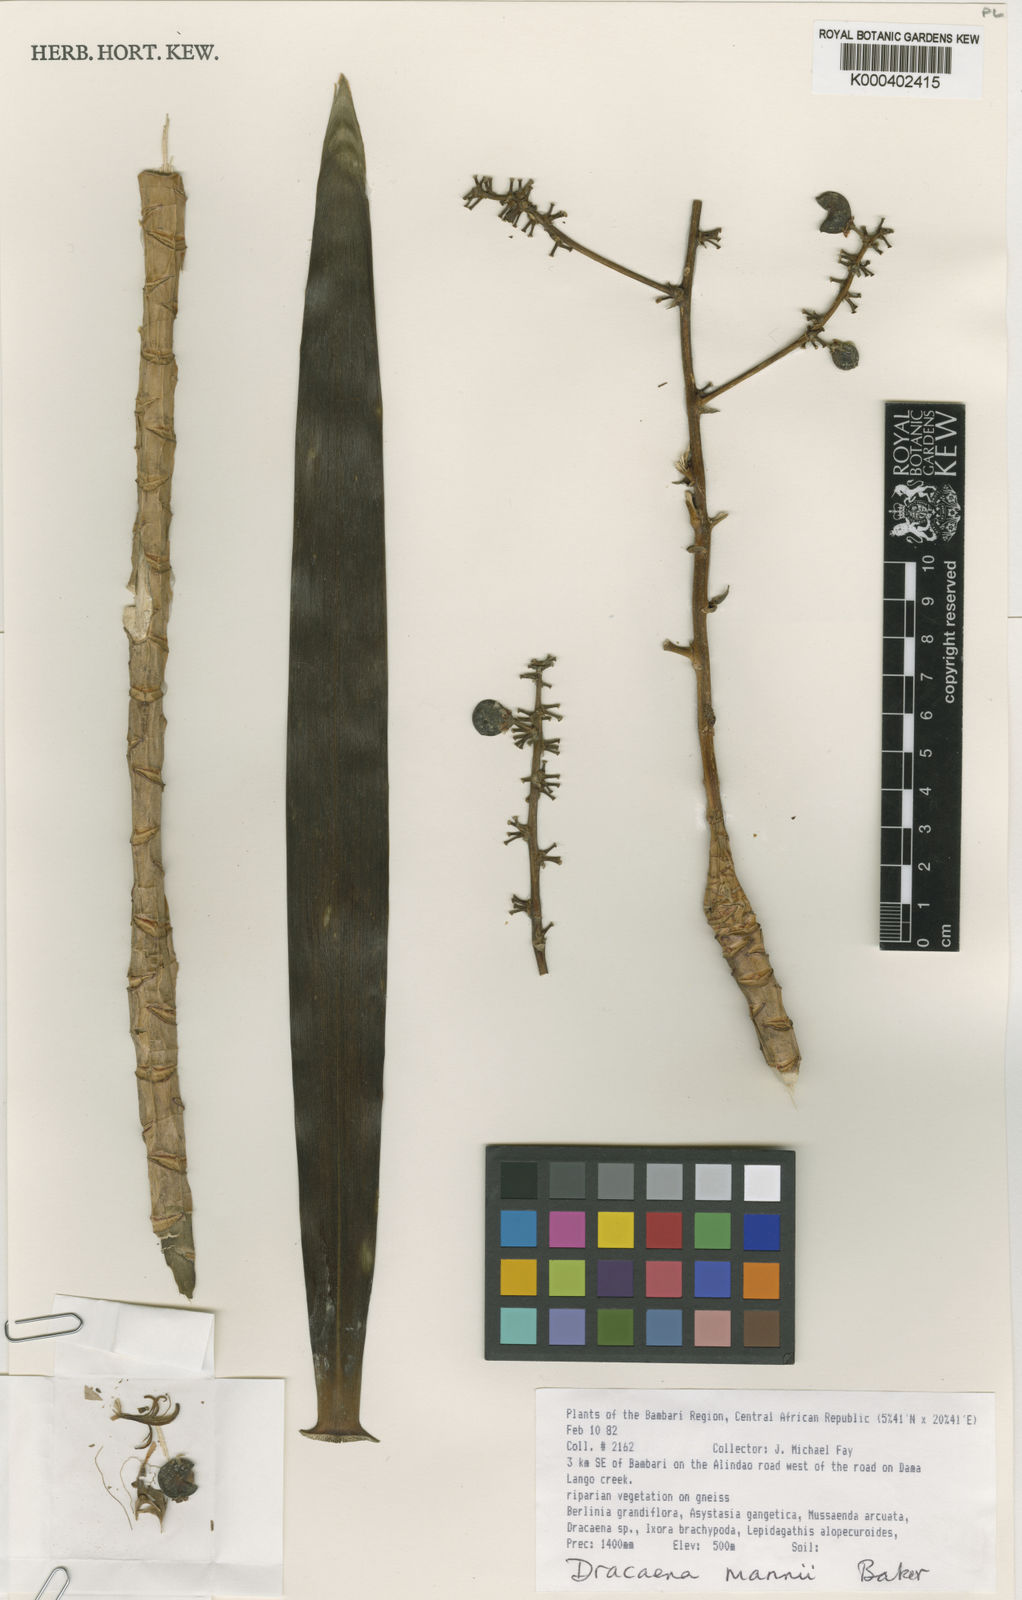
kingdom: Plantae
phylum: Tracheophyta
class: Liliopsida
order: Asparagales
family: Asparagaceae
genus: Dracaena
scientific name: Dracaena mannii
